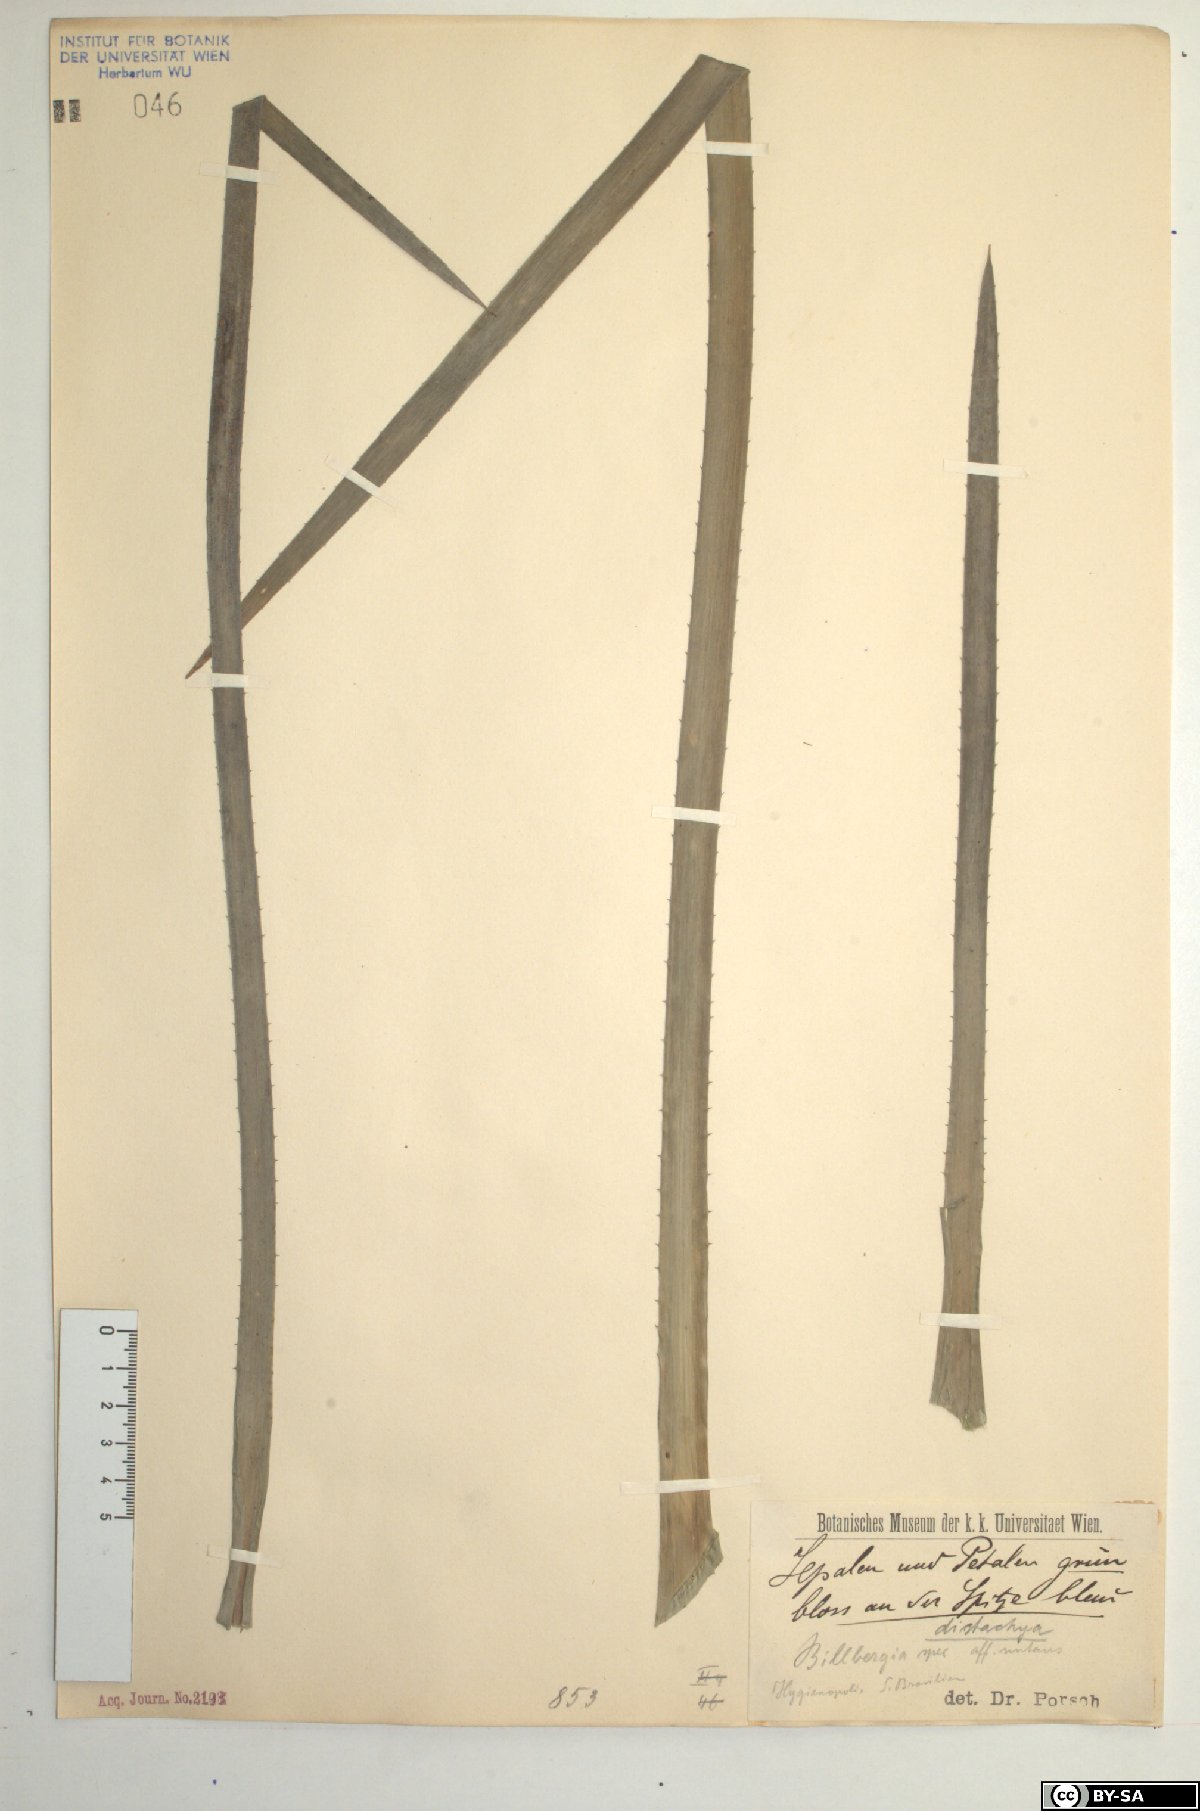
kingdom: Plantae
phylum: Tracheophyta
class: Liliopsida
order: Poales
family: Bromeliaceae
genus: Billbergia
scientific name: Billbergia distachia
